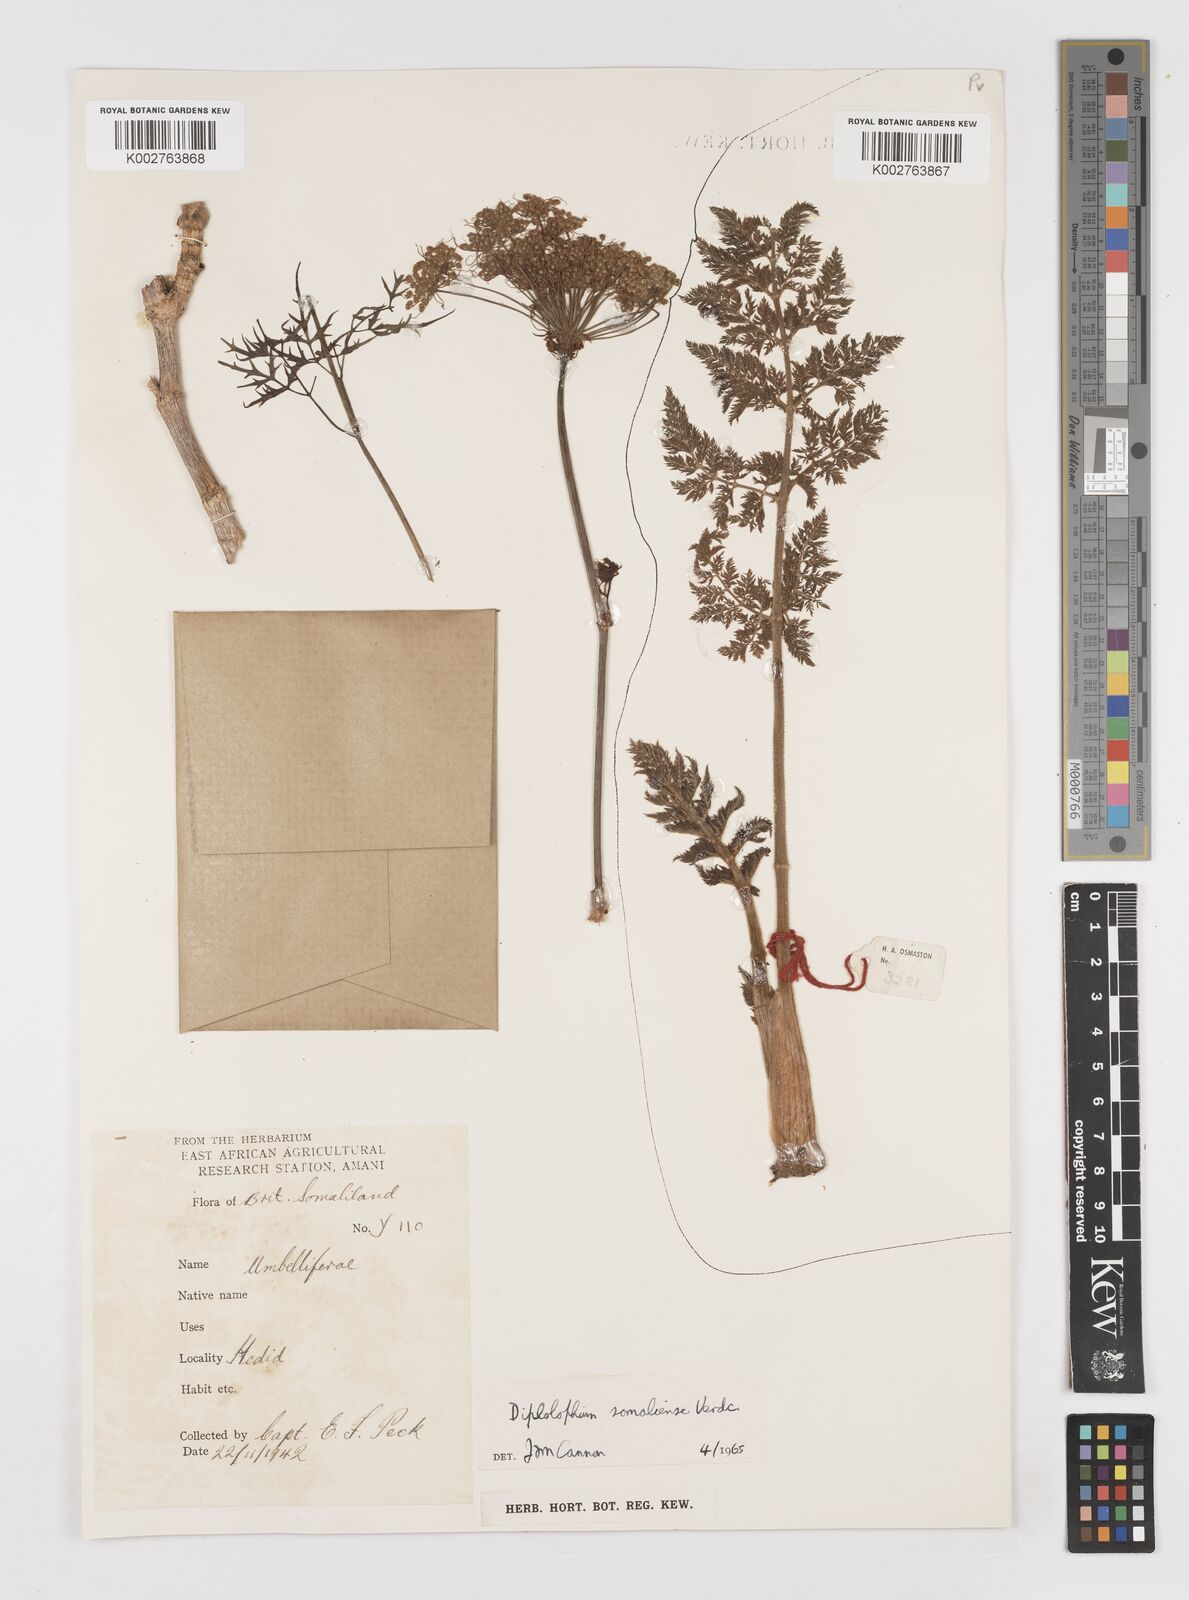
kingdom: Plantae
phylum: Tracheophyta
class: Magnoliopsida
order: Apiales
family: Apiaceae
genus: Diplolophium
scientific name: Diplolophium somaliense
